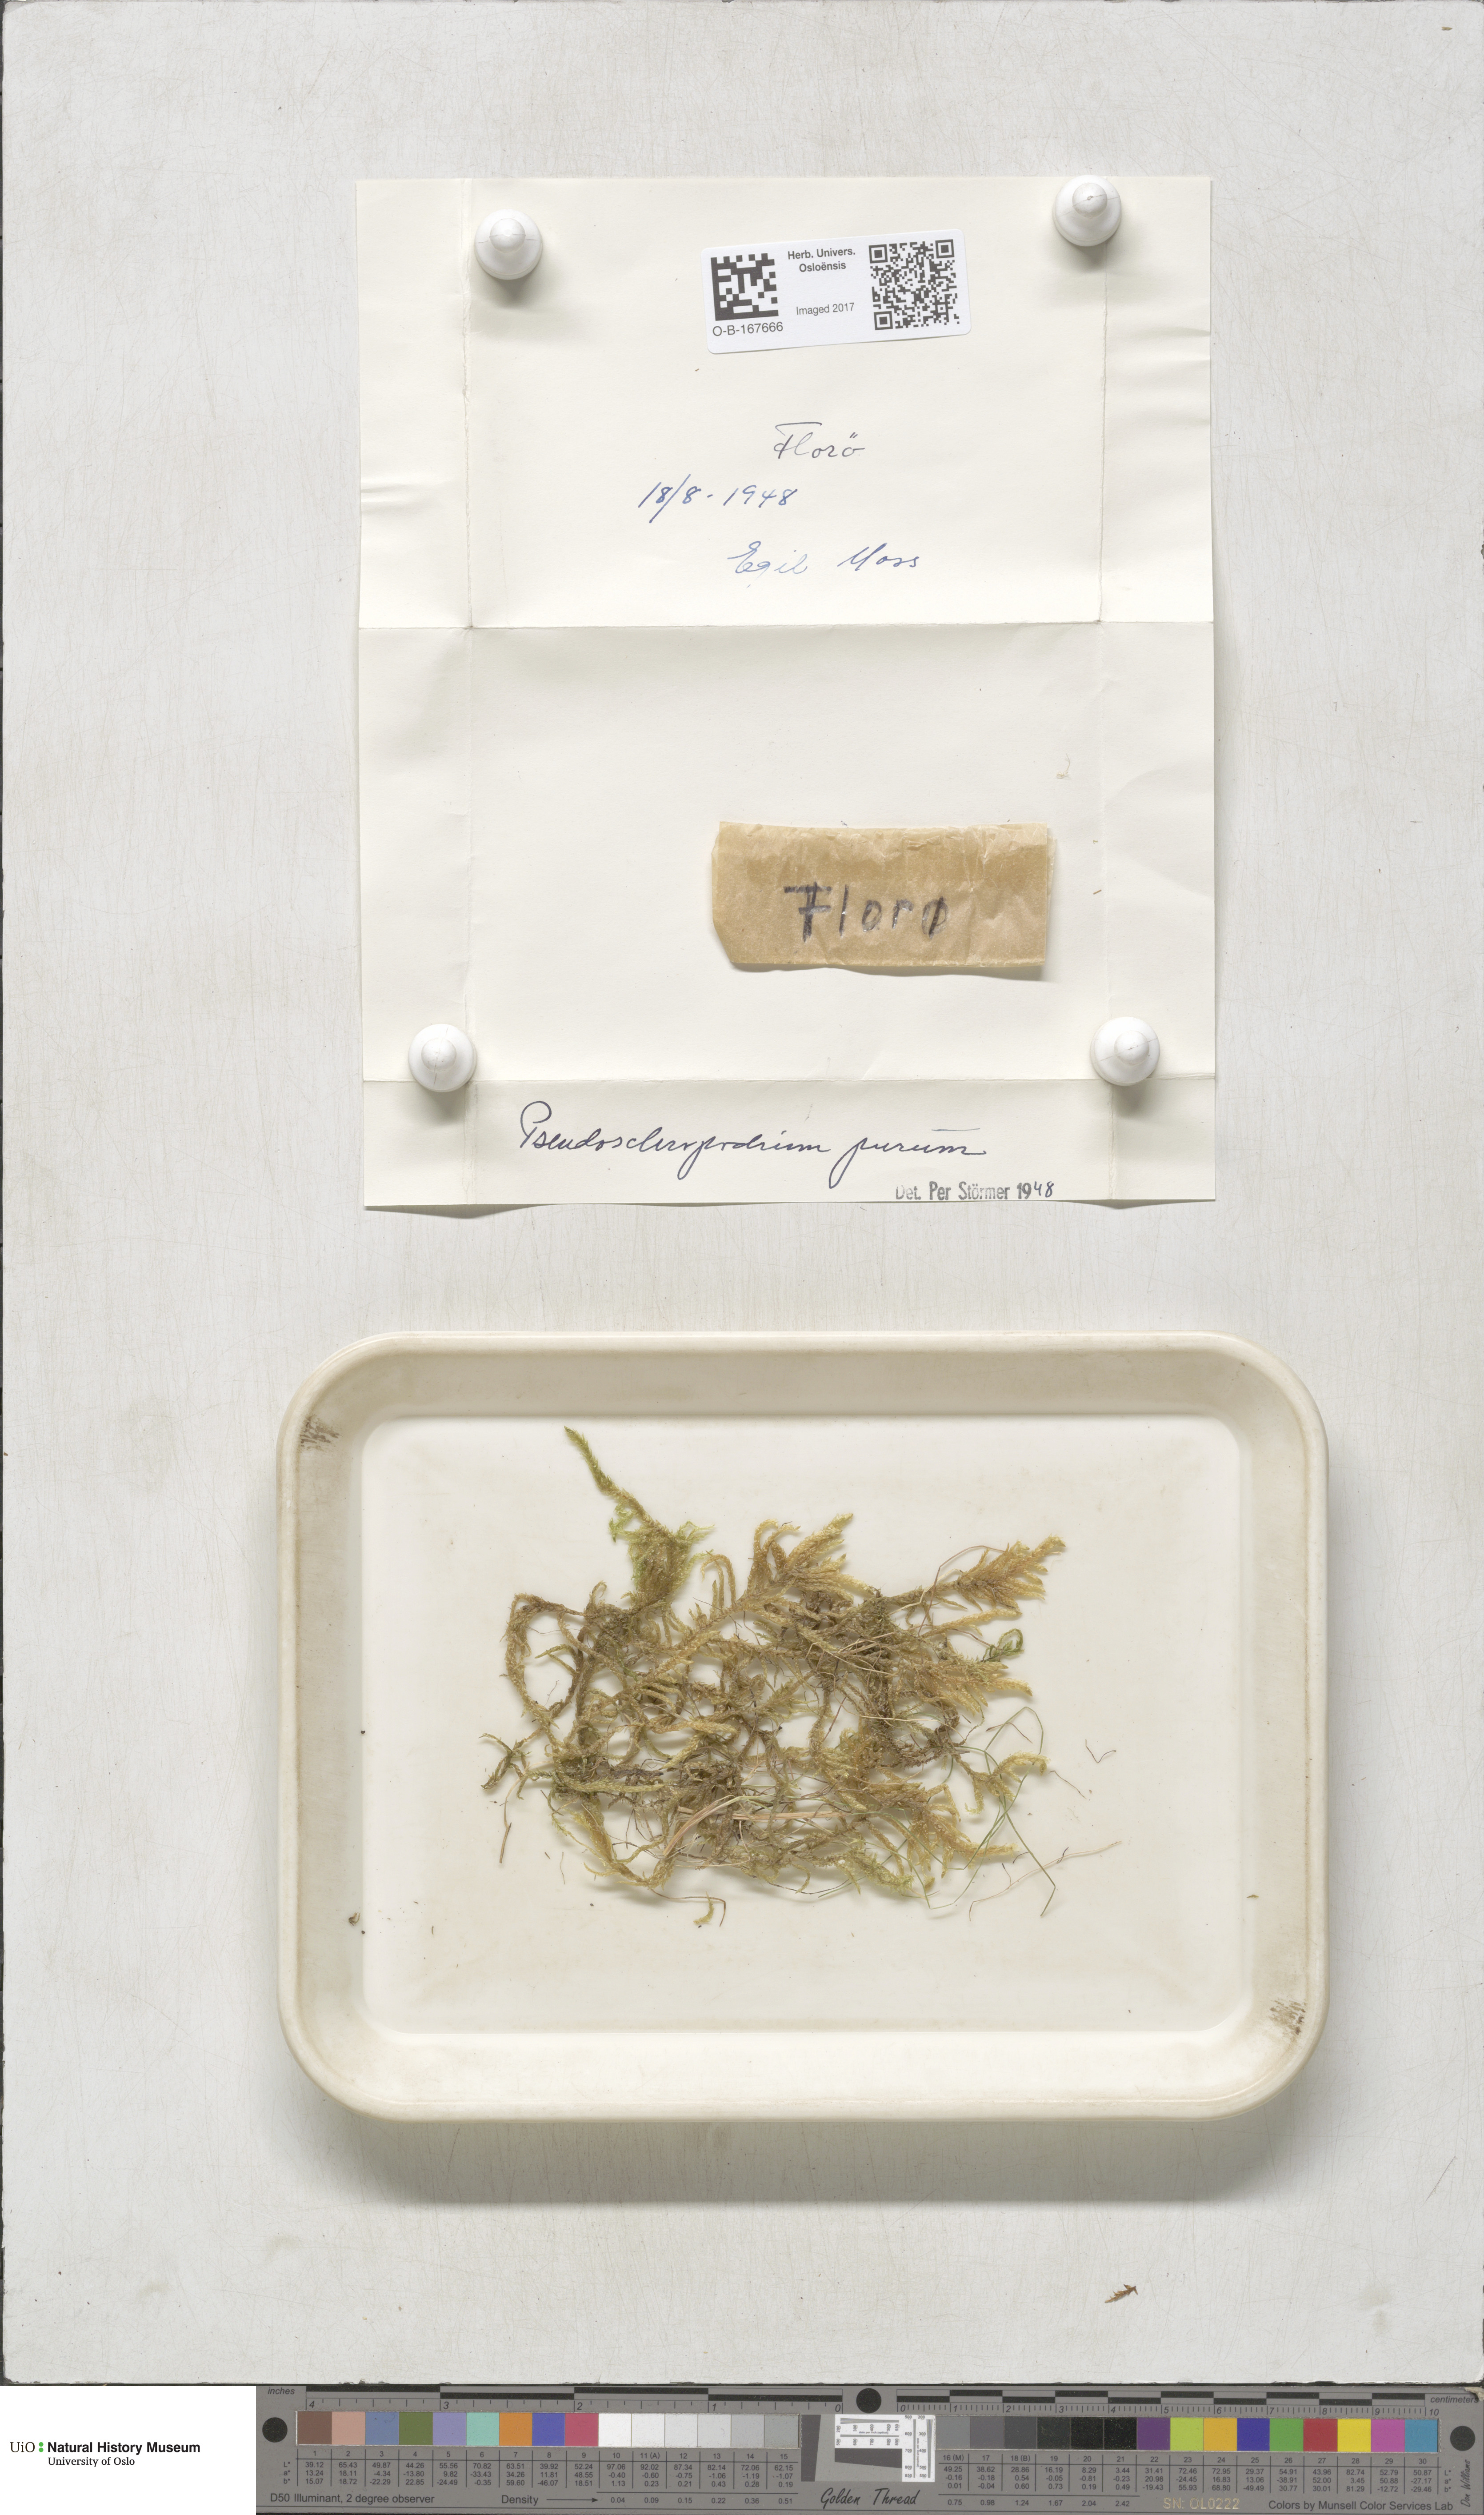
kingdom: Plantae
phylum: Bryophyta
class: Bryopsida
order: Hypnales
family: Brachytheciaceae
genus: Pseudoscleropodium
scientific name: Pseudoscleropodium purum
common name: Neat feather-moss
